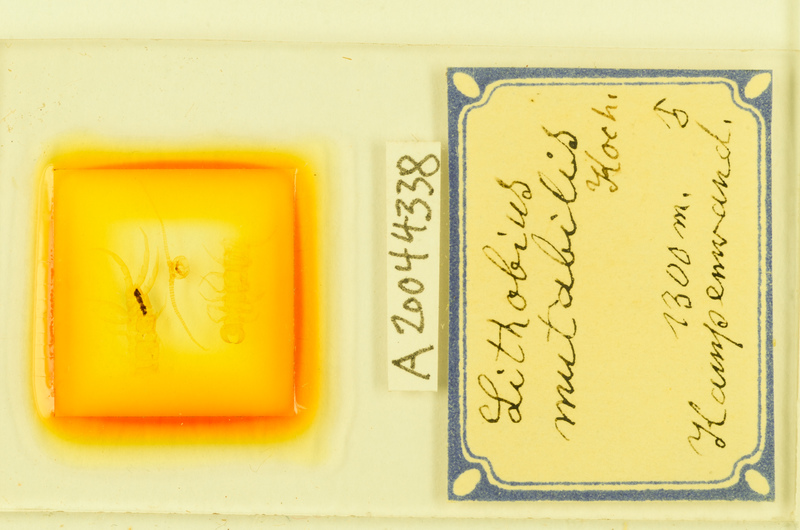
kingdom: Animalia
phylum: Arthropoda
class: Chilopoda
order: Lithobiomorpha
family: Lithobiidae
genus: Lithobius
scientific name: Lithobius mutabilis
